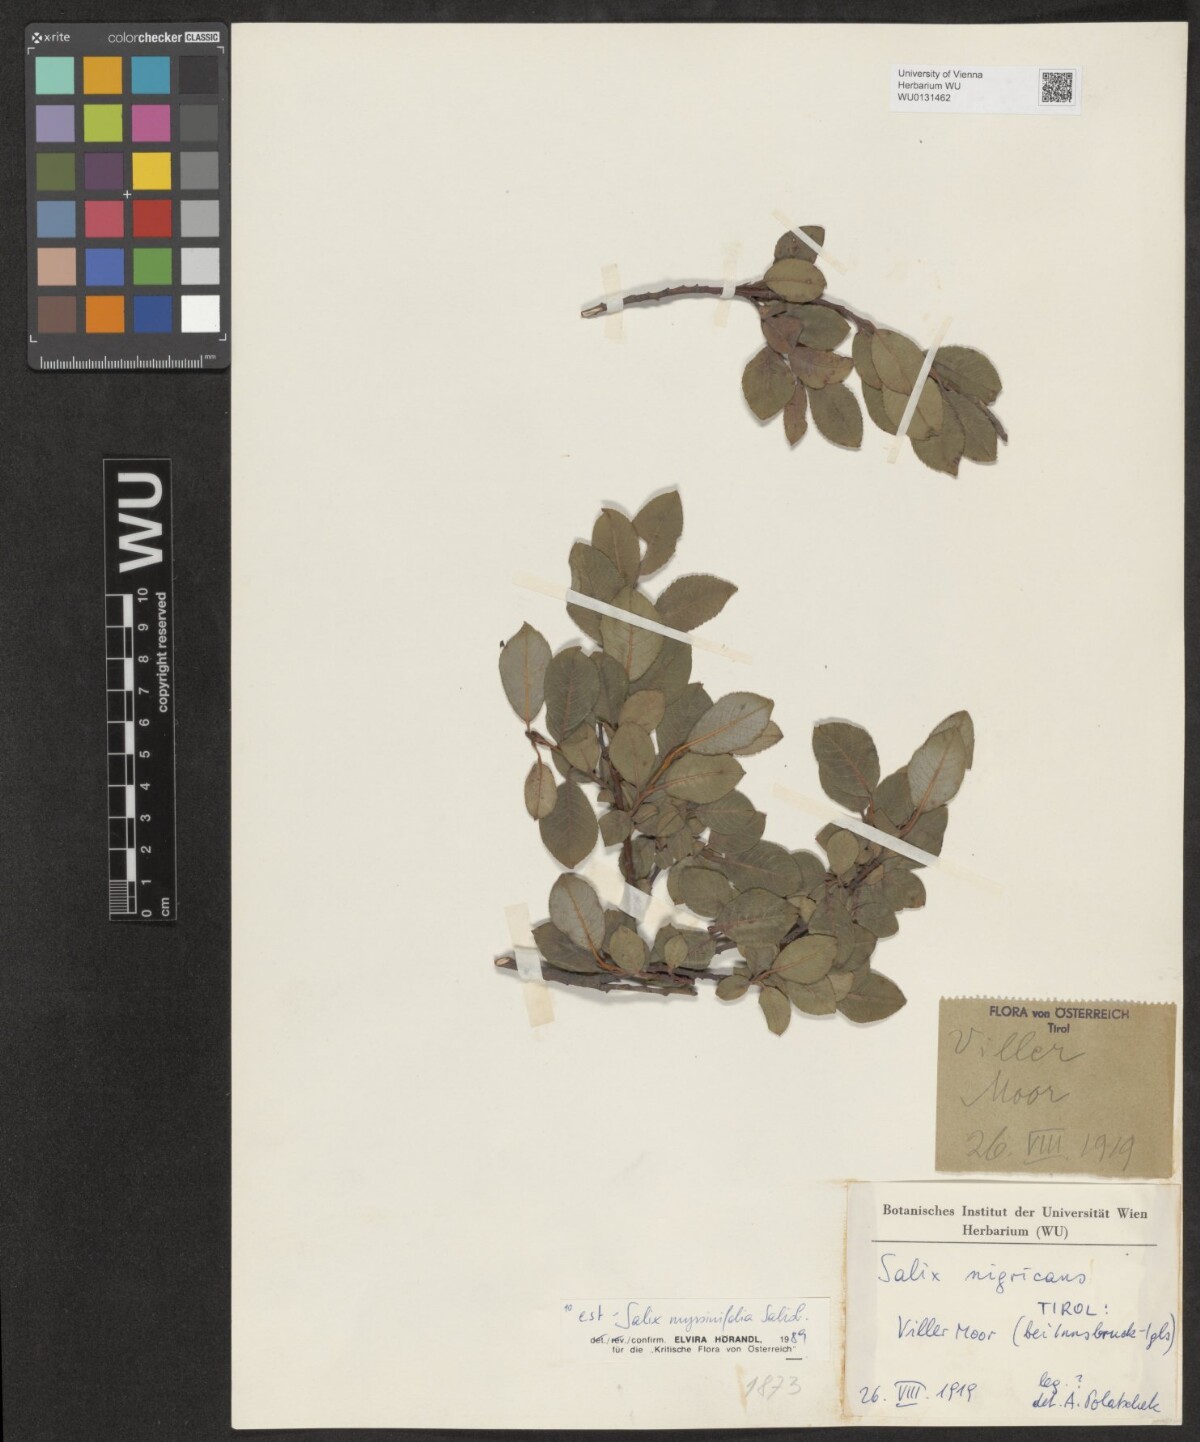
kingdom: Plantae
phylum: Tracheophyta
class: Magnoliopsida
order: Malpighiales
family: Salicaceae
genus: Salix
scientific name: Salix myrsinifolia
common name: Dark-leaved willow
